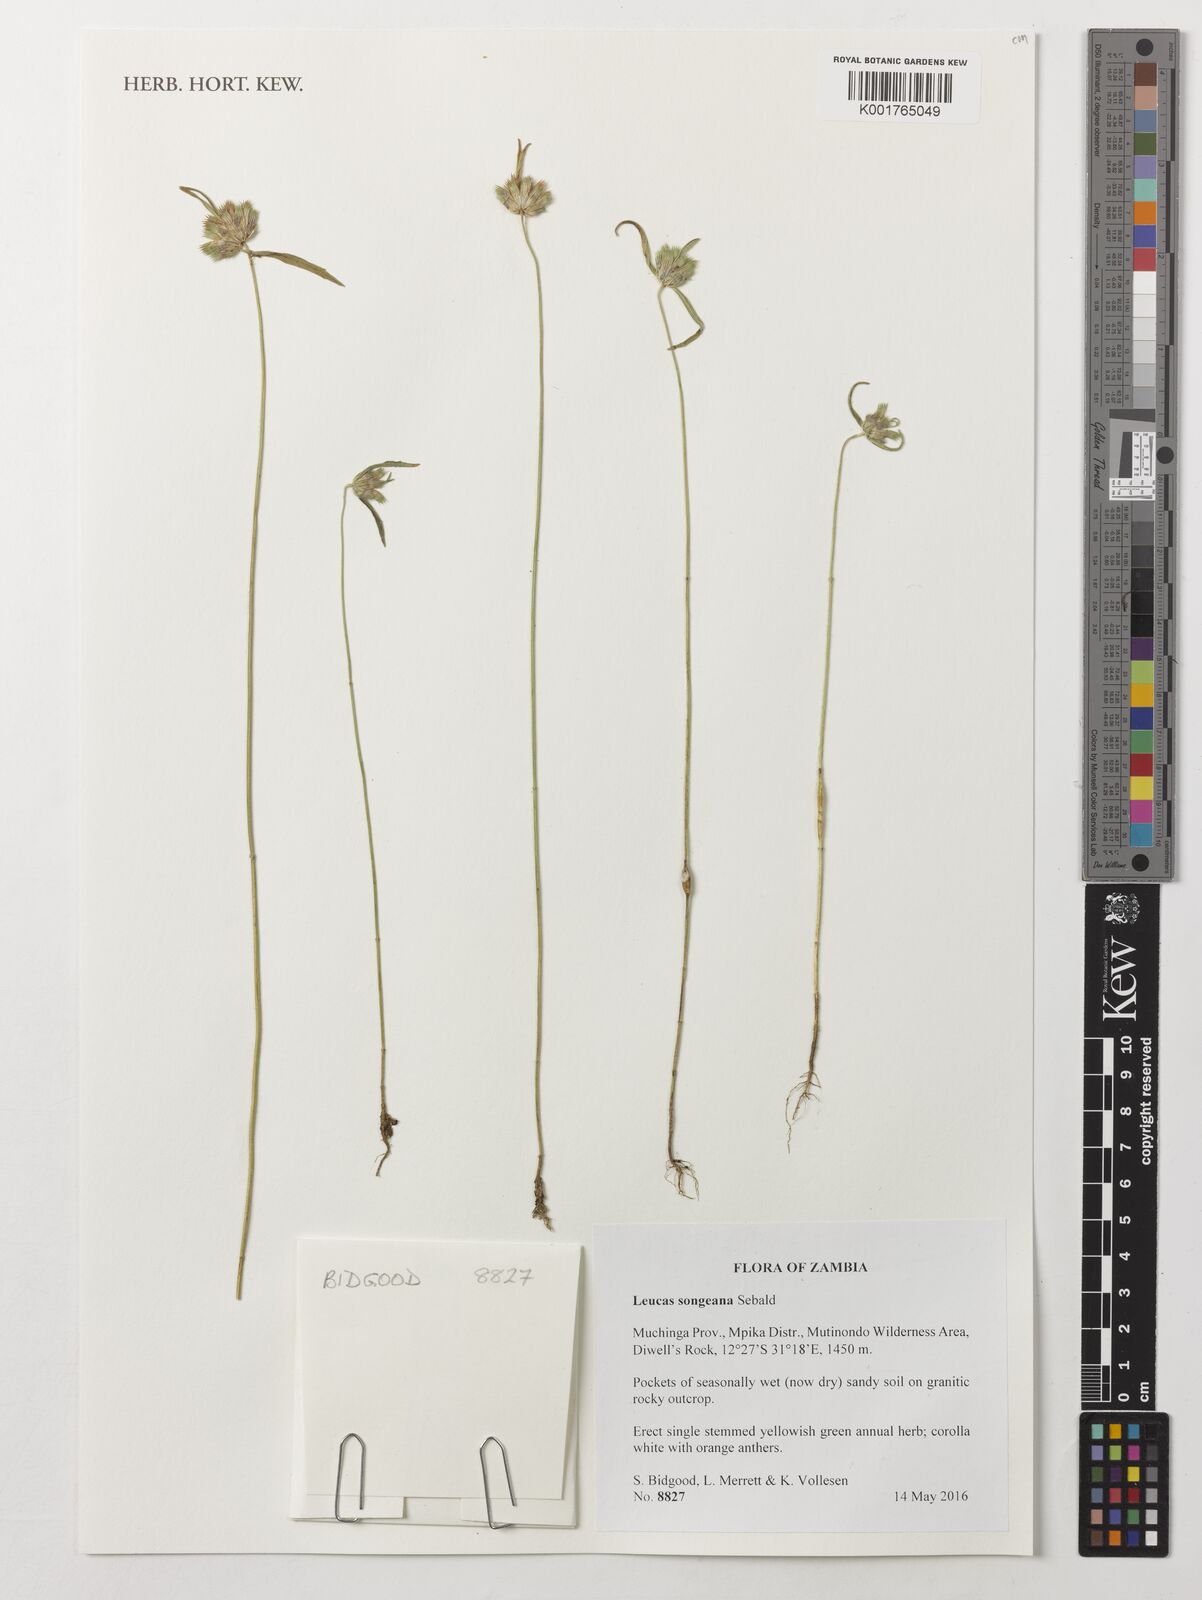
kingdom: Plantae
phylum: Tracheophyta
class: Magnoliopsida
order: Lamiales
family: Lamiaceae
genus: Leucas
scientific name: Leucas songeana
